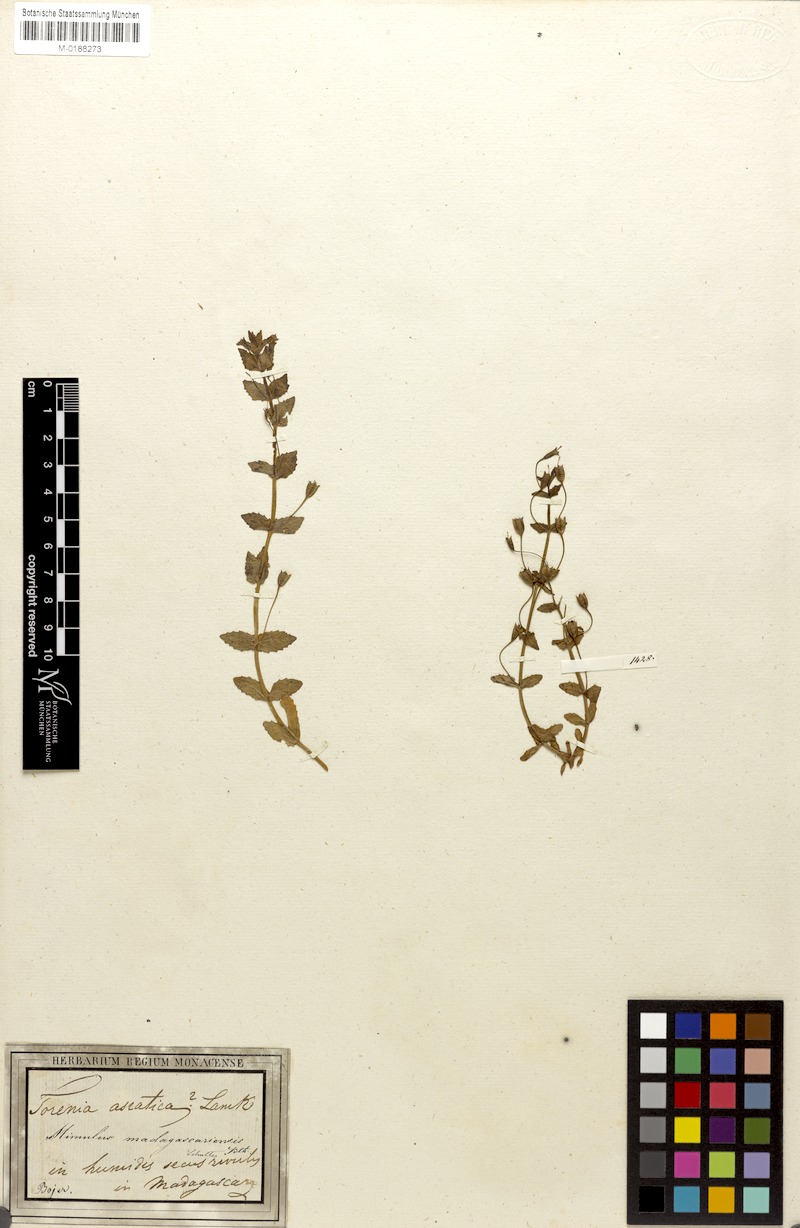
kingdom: Plantae
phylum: Tracheophyta
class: Magnoliopsida
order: Lamiales
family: Phrymaceae
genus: Mimulus
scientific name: Mimulus madagascariensis
